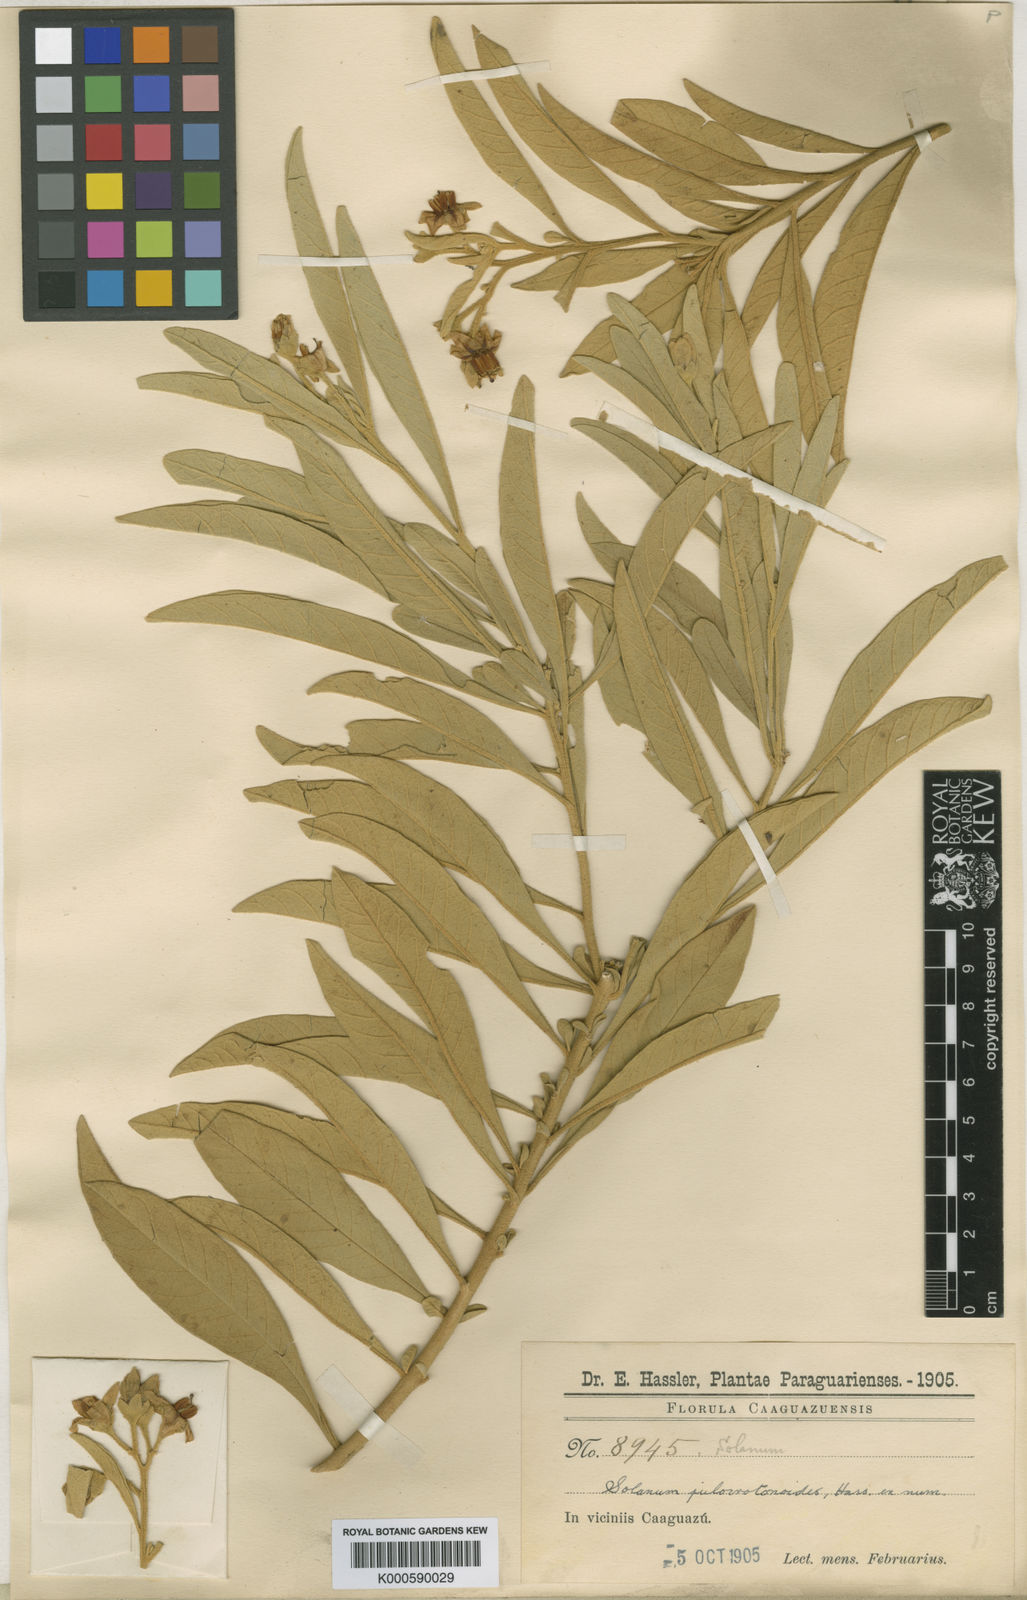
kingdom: Plantae
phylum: Tracheophyta
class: Magnoliopsida
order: Solanales
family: Solanaceae
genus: Solanum
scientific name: Solanum julocrotonoides
